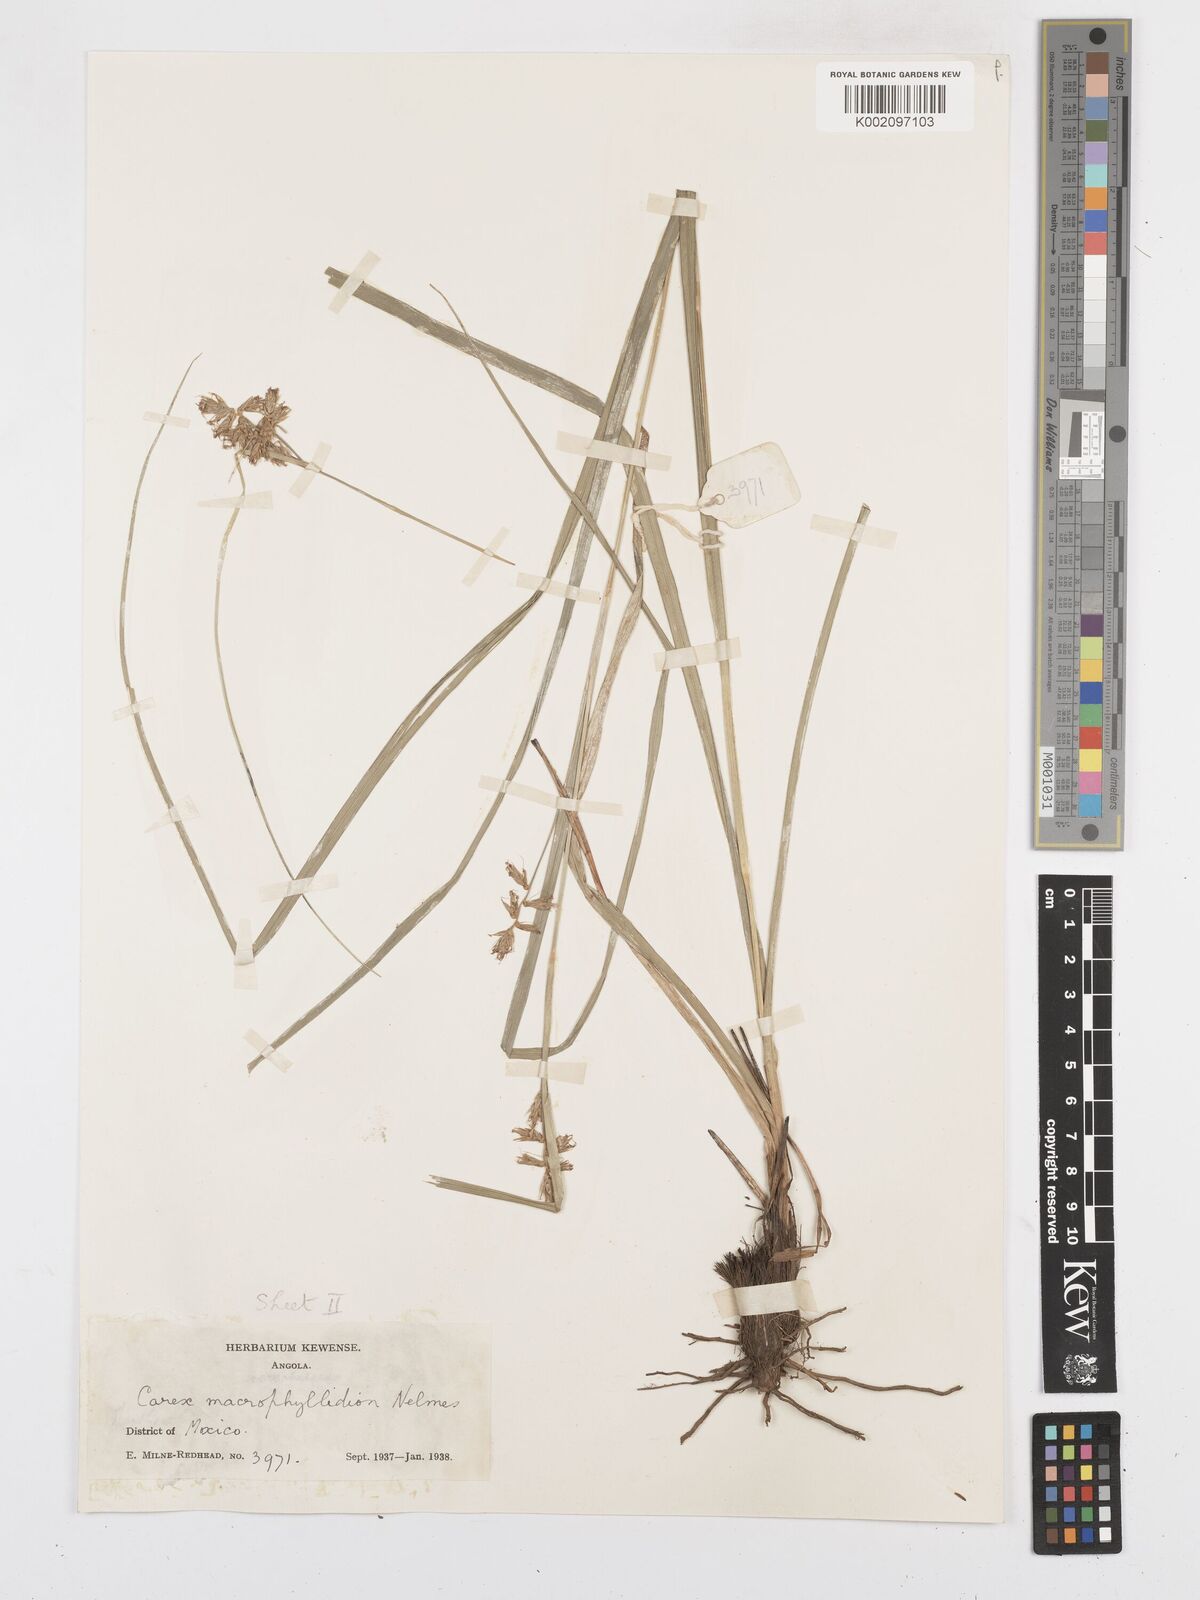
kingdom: Plantae
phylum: Tracheophyta
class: Liliopsida
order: Poales
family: Cyperaceae
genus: Carex
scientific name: Carex macrophyllidion
